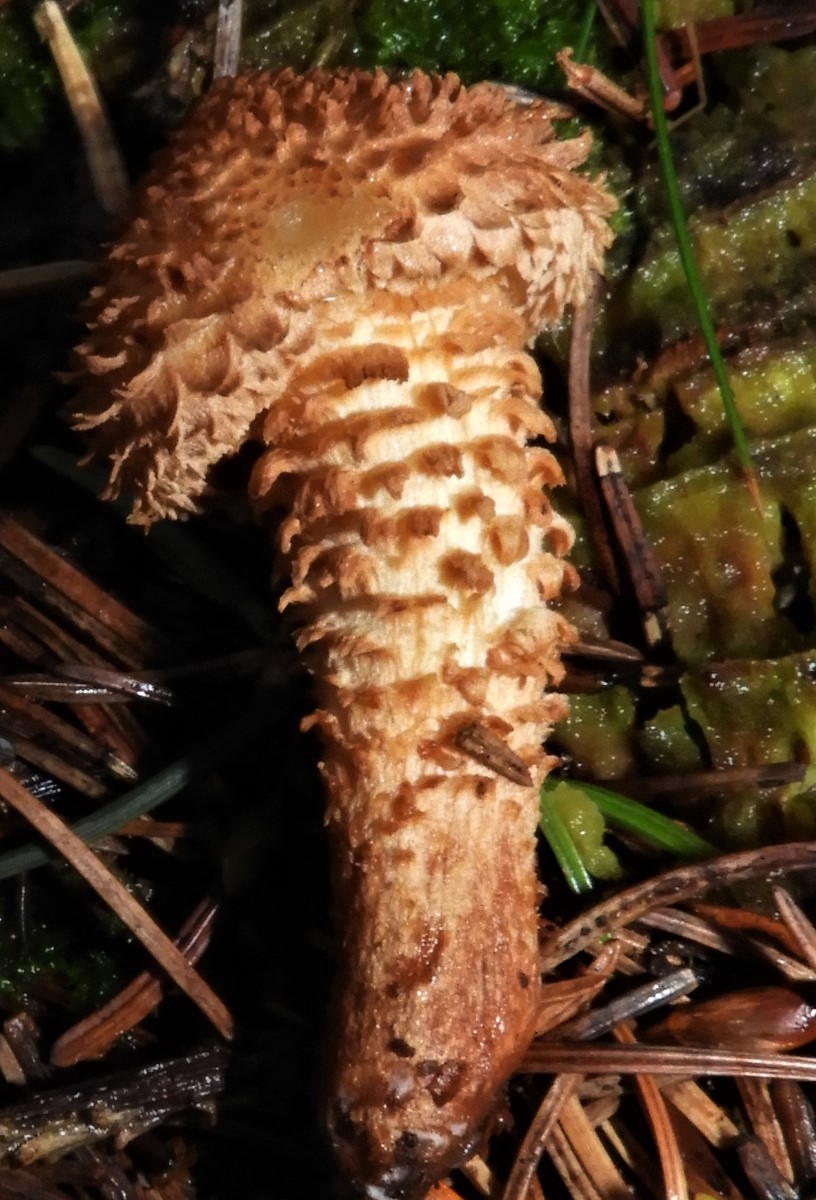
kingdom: Fungi
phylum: Basidiomycota
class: Agaricomycetes
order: Agaricales
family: Strophariaceae
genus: Pholiota
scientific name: Pholiota squarrosa
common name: krumskællet skælhat
